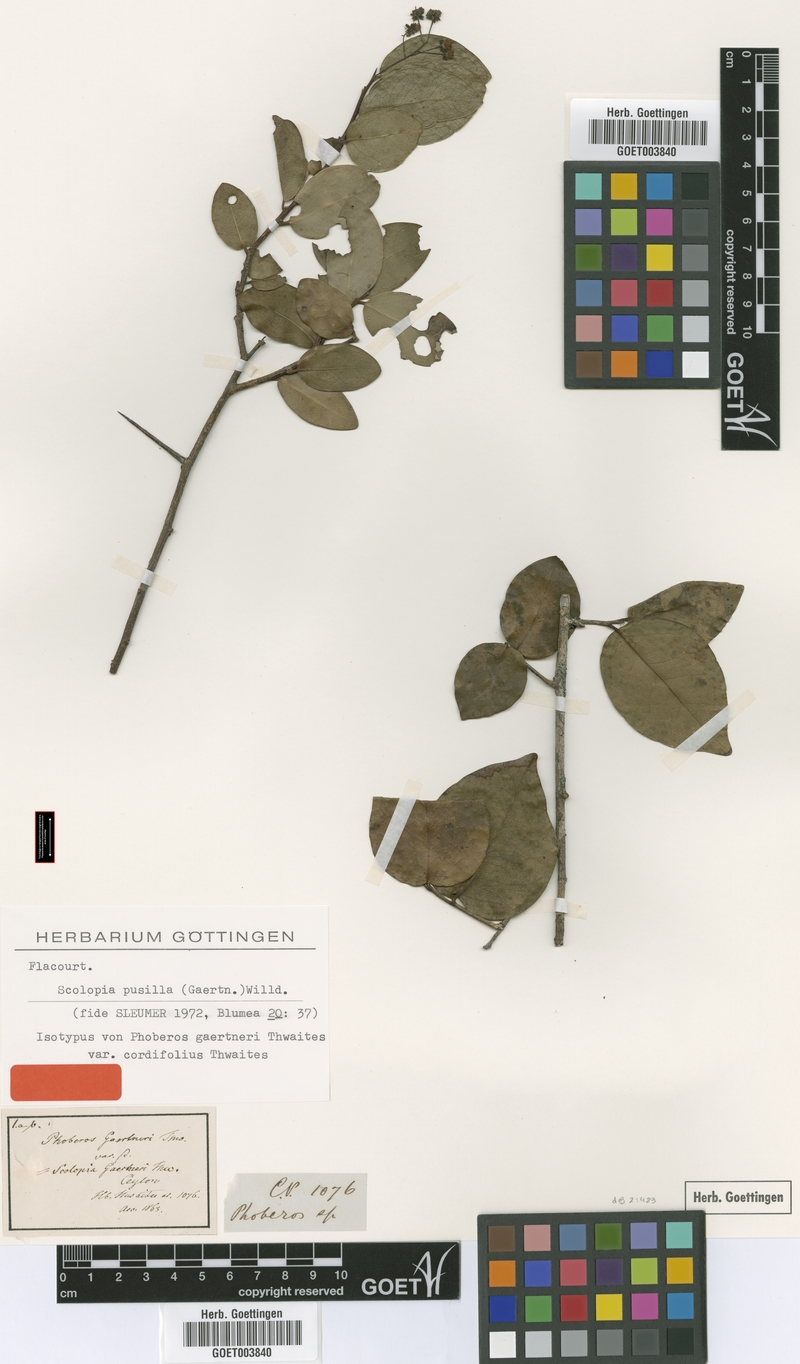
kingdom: Plantae
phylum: Tracheophyta
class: Magnoliopsida
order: Malpighiales
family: Salicaceae
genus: Scolopia
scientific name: Scolopia pusilla
